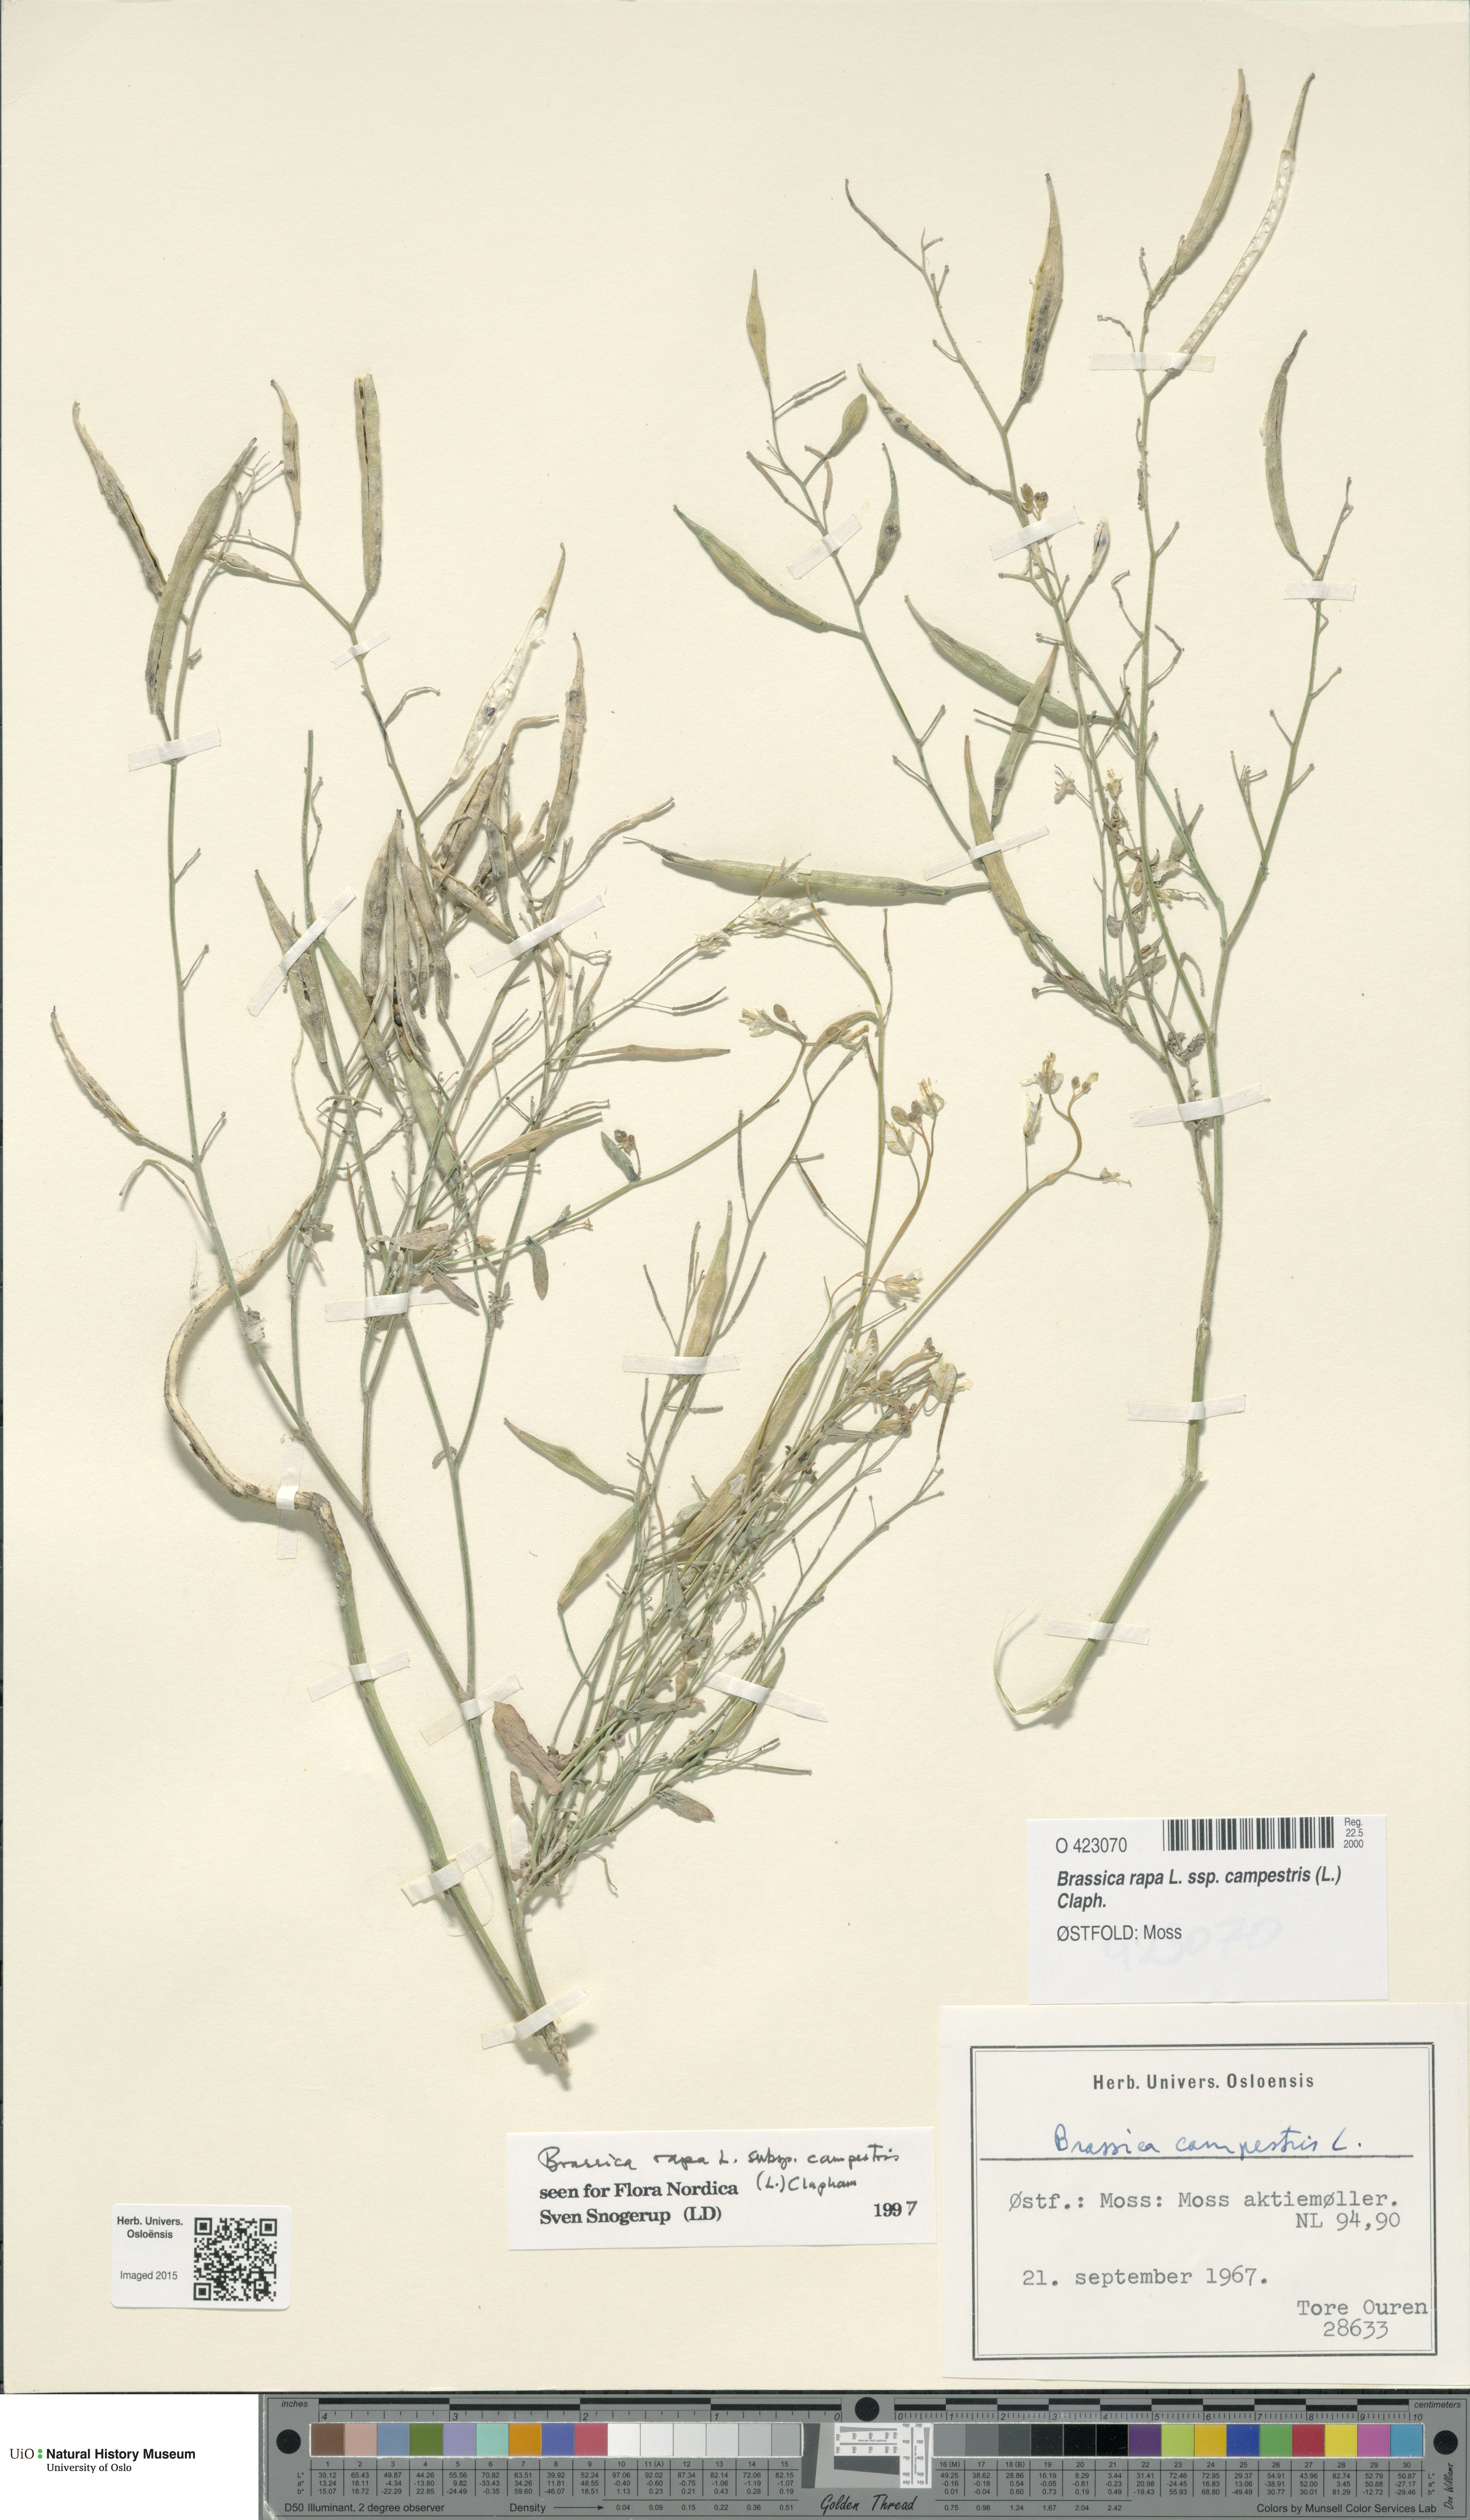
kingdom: Plantae
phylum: Tracheophyta
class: Magnoliopsida
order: Brassicales
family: Brassicaceae
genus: Brassica
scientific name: Brassica rapa
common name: Field mustard
